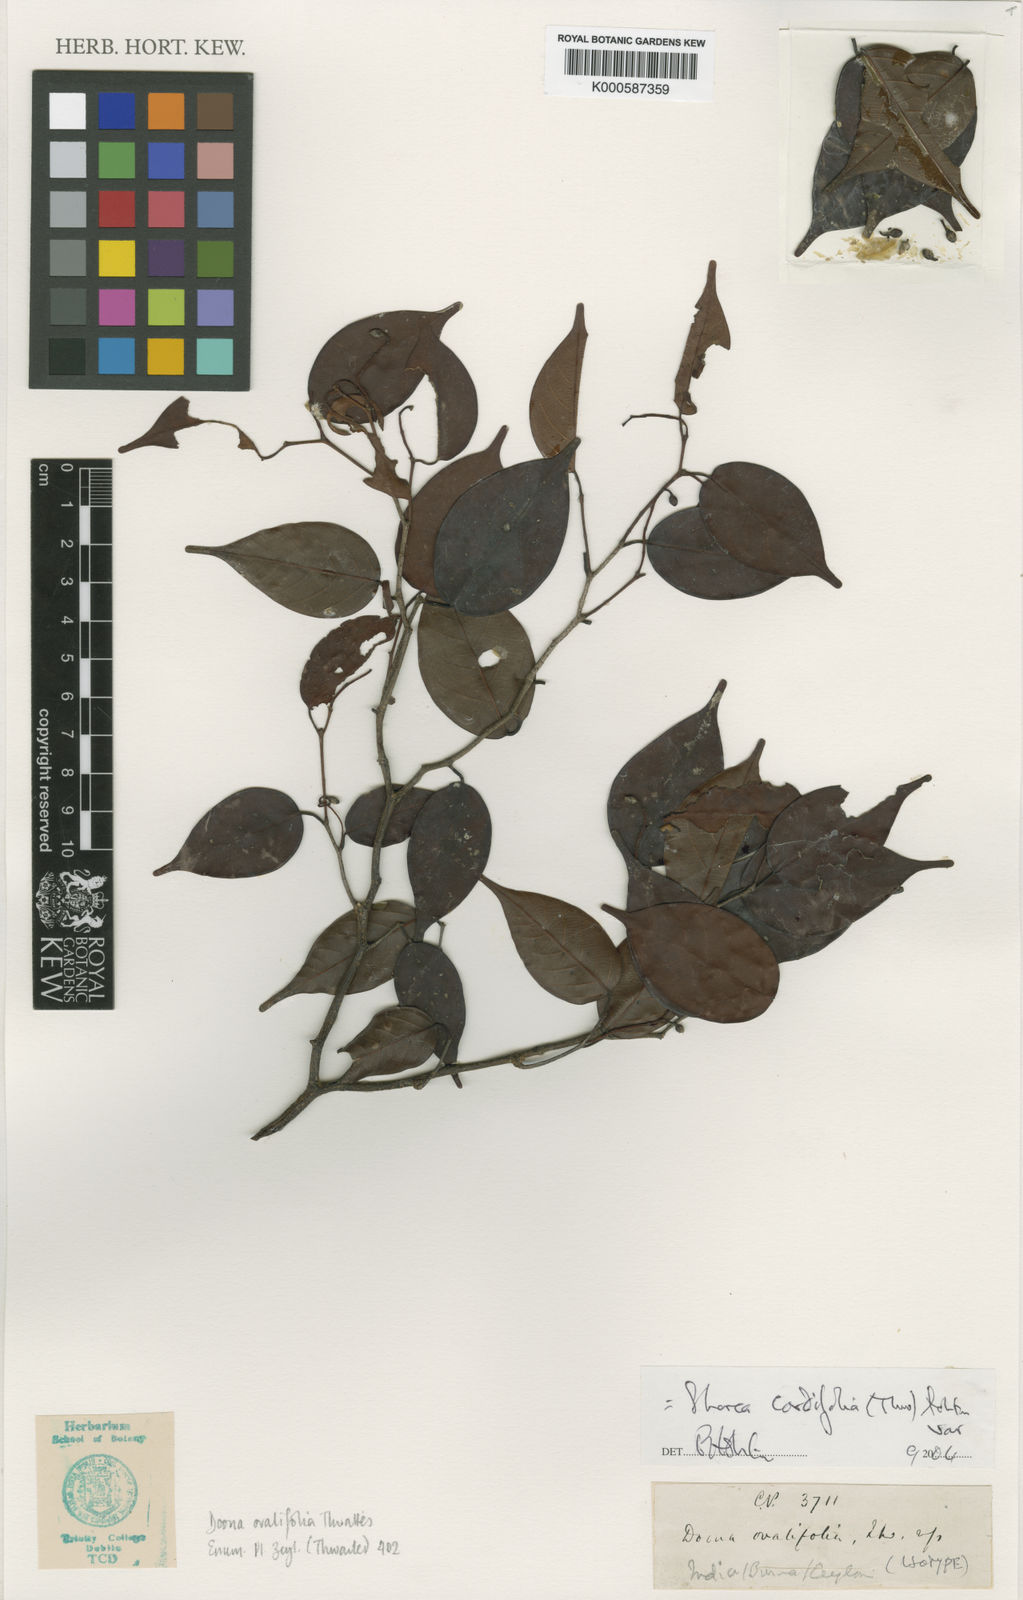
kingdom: Plantae
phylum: Tracheophyta
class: Magnoliopsida
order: Malvales
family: Dipterocarpaceae
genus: Doona
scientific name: Doona cordifolia
